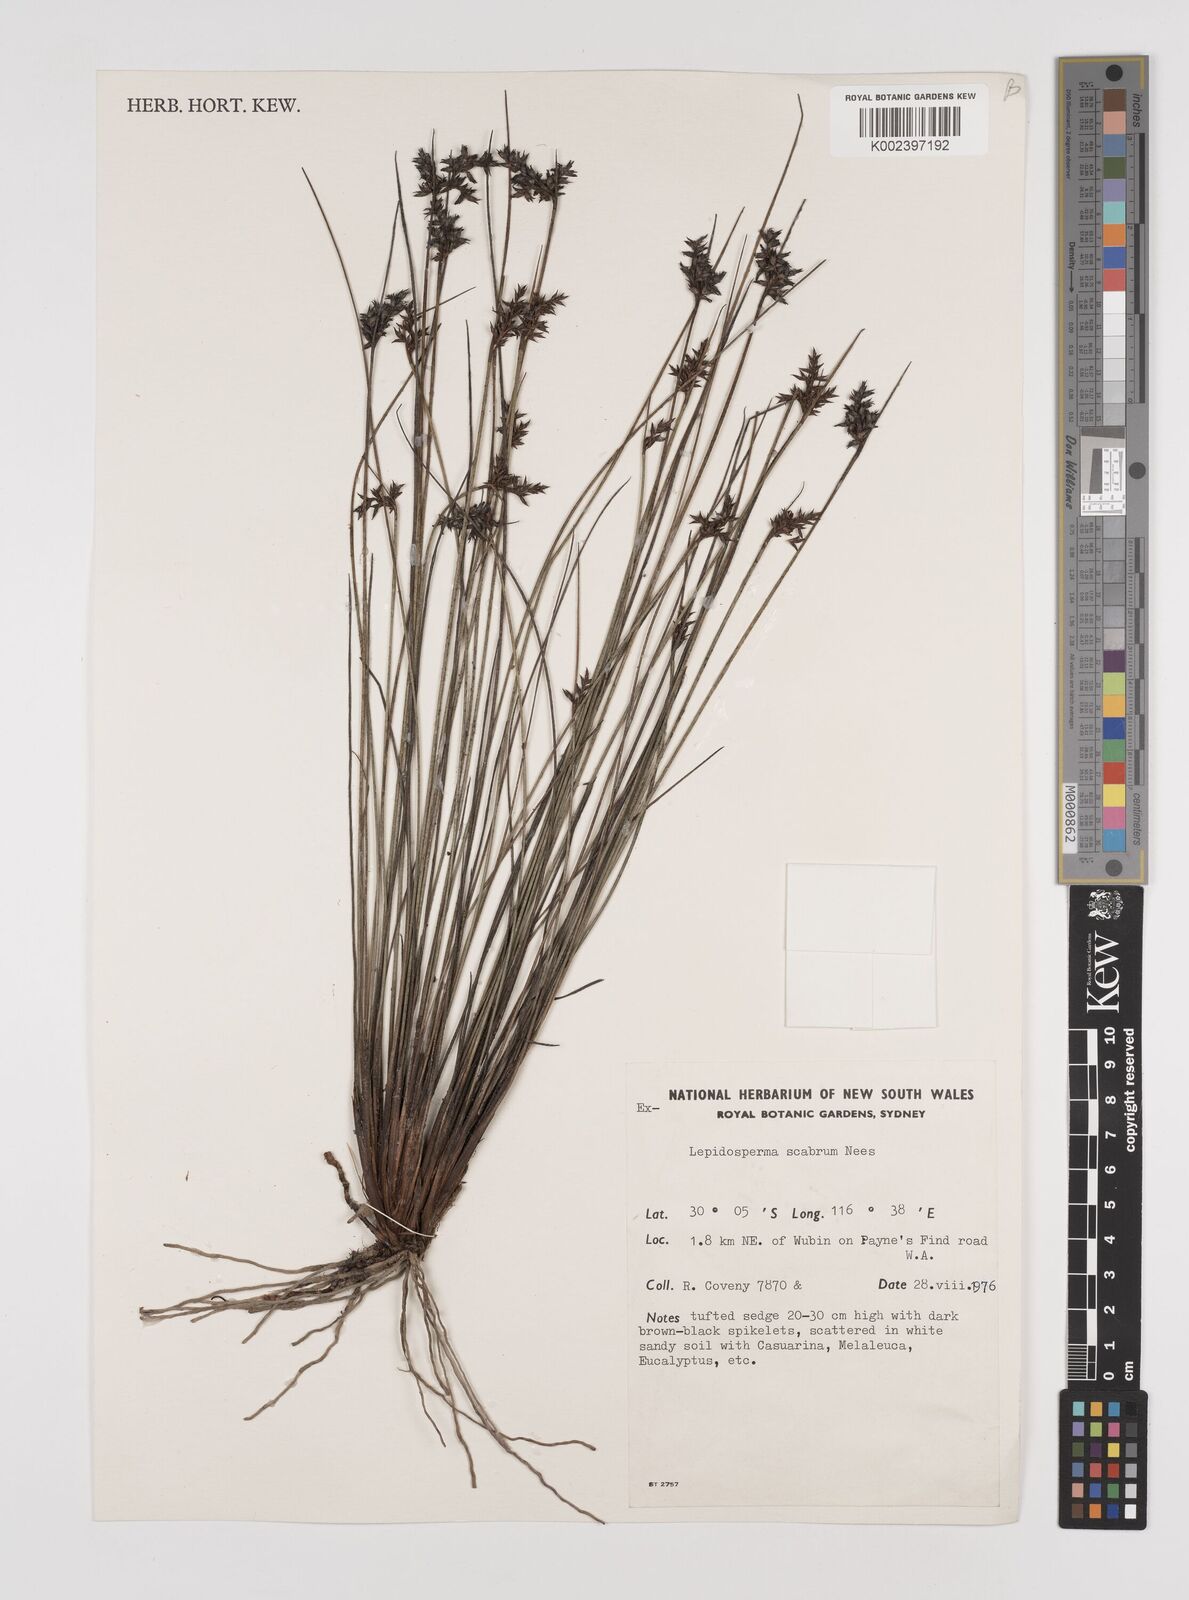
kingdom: Plantae
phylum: Tracheophyta
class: Liliopsida
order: Poales
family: Cyperaceae
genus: Lepidosperma
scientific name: Lepidosperma scabrum
